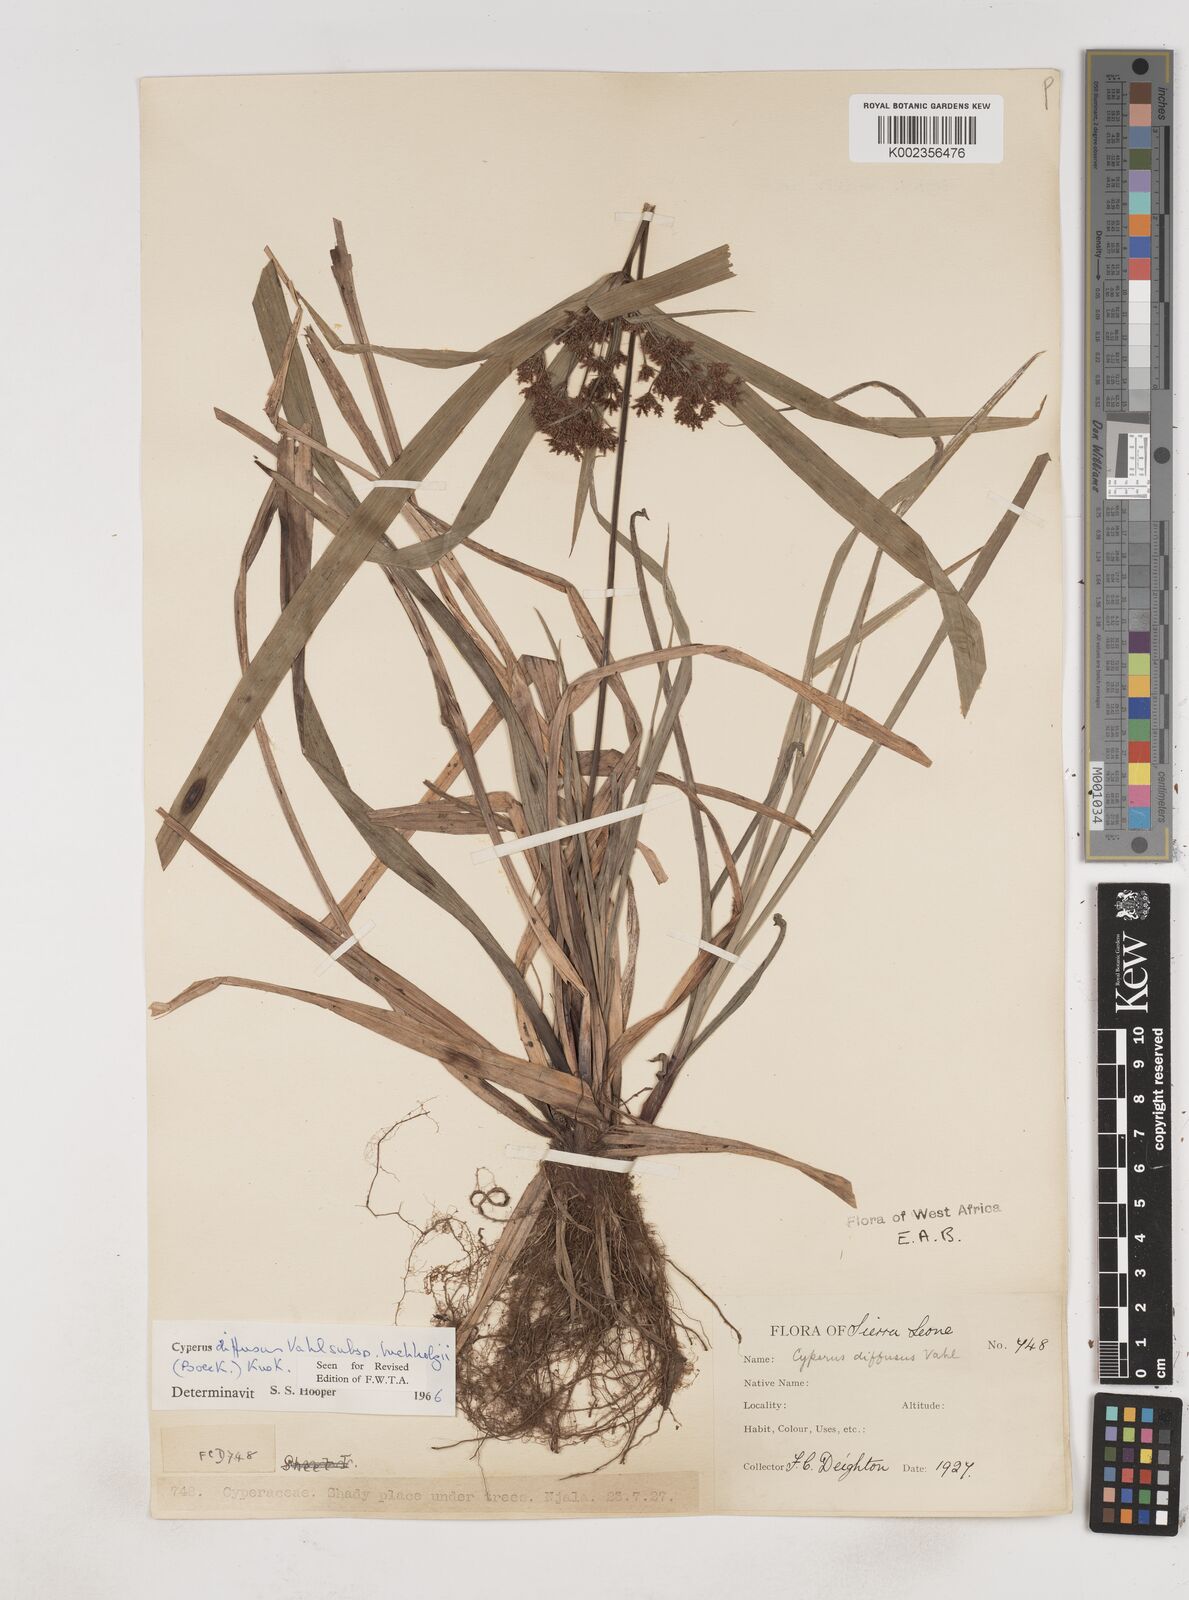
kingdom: Plantae
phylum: Tracheophyta
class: Liliopsida
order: Poales
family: Cyperaceae
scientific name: Cyperaceae
